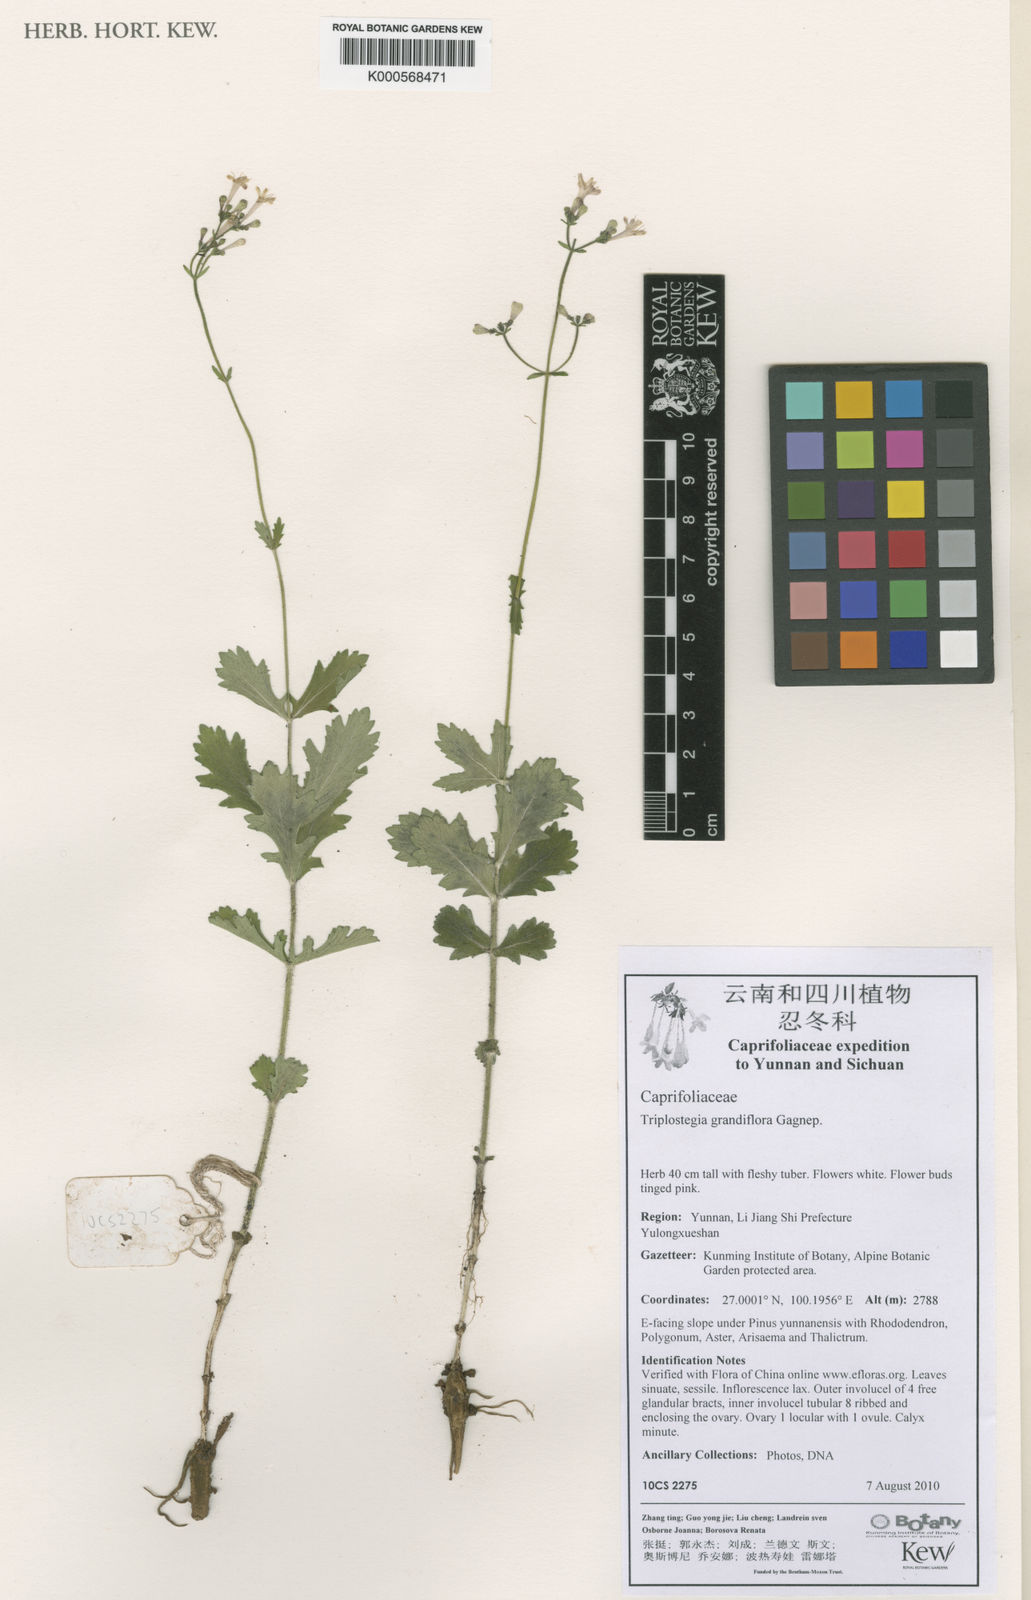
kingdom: Plantae
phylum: Tracheophyta
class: Magnoliopsida
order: Dipsacales
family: Caprifoliaceae
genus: Triplostegia
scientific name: Triplostegia grandiflora
